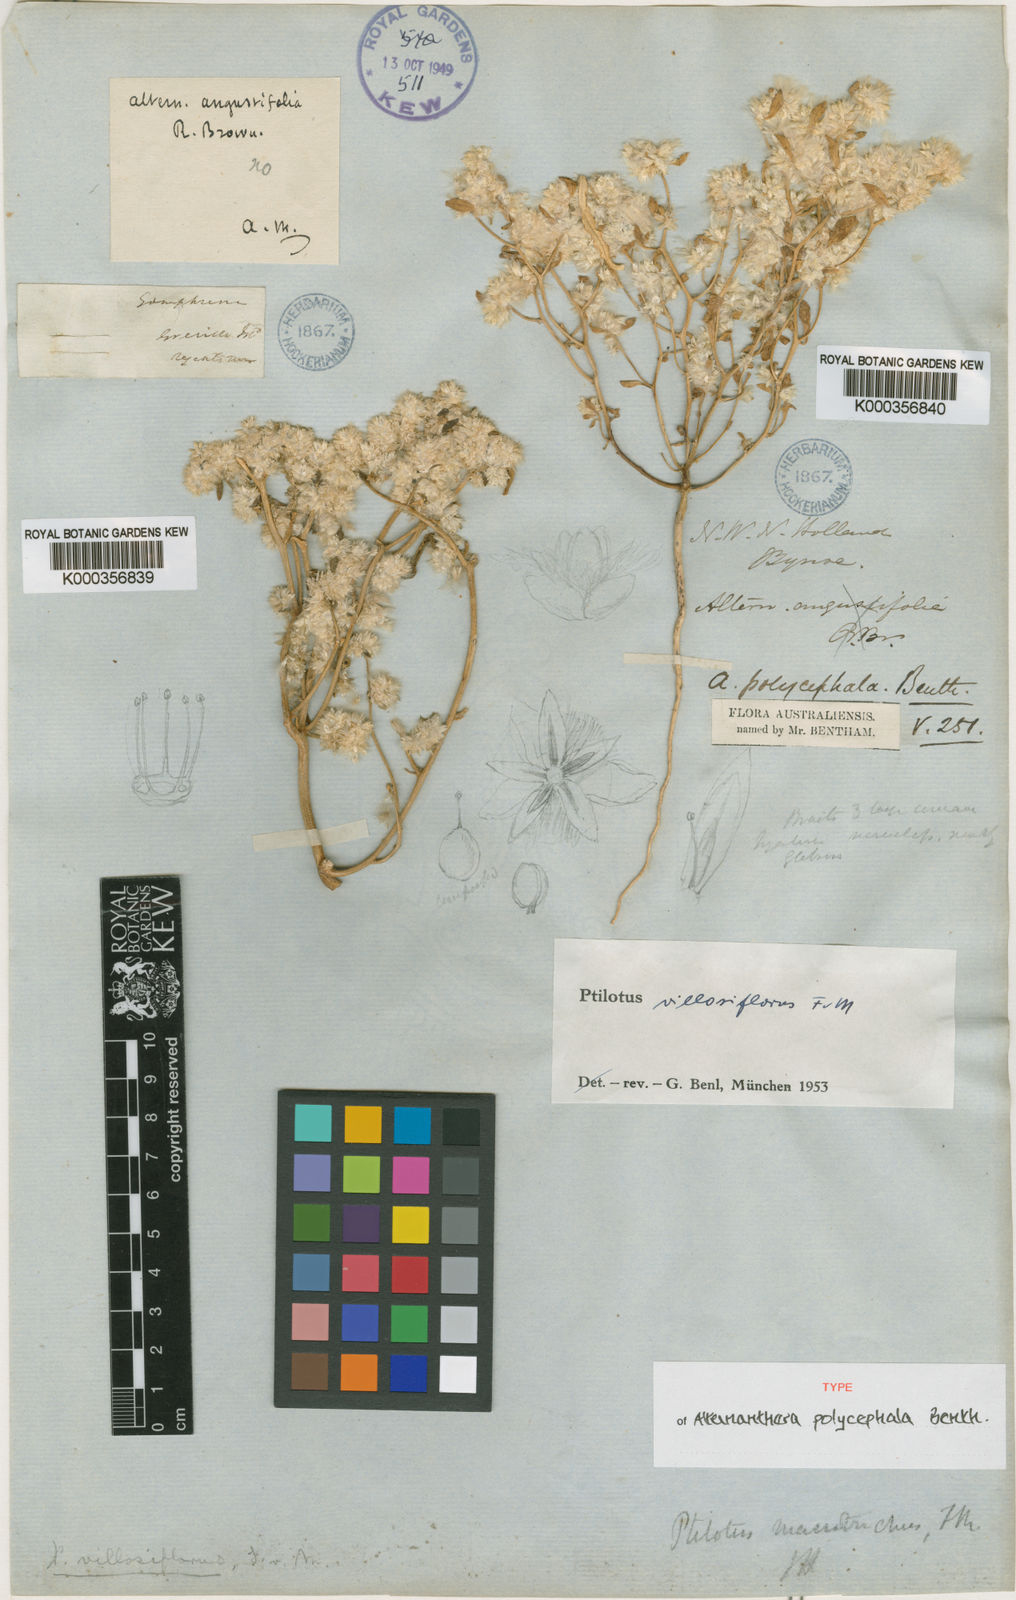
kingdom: Plantae
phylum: Tracheophyta
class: Magnoliopsida
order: Caryophyllales
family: Amaranthaceae
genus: Ptilotus
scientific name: Ptilotus villosiflorus
